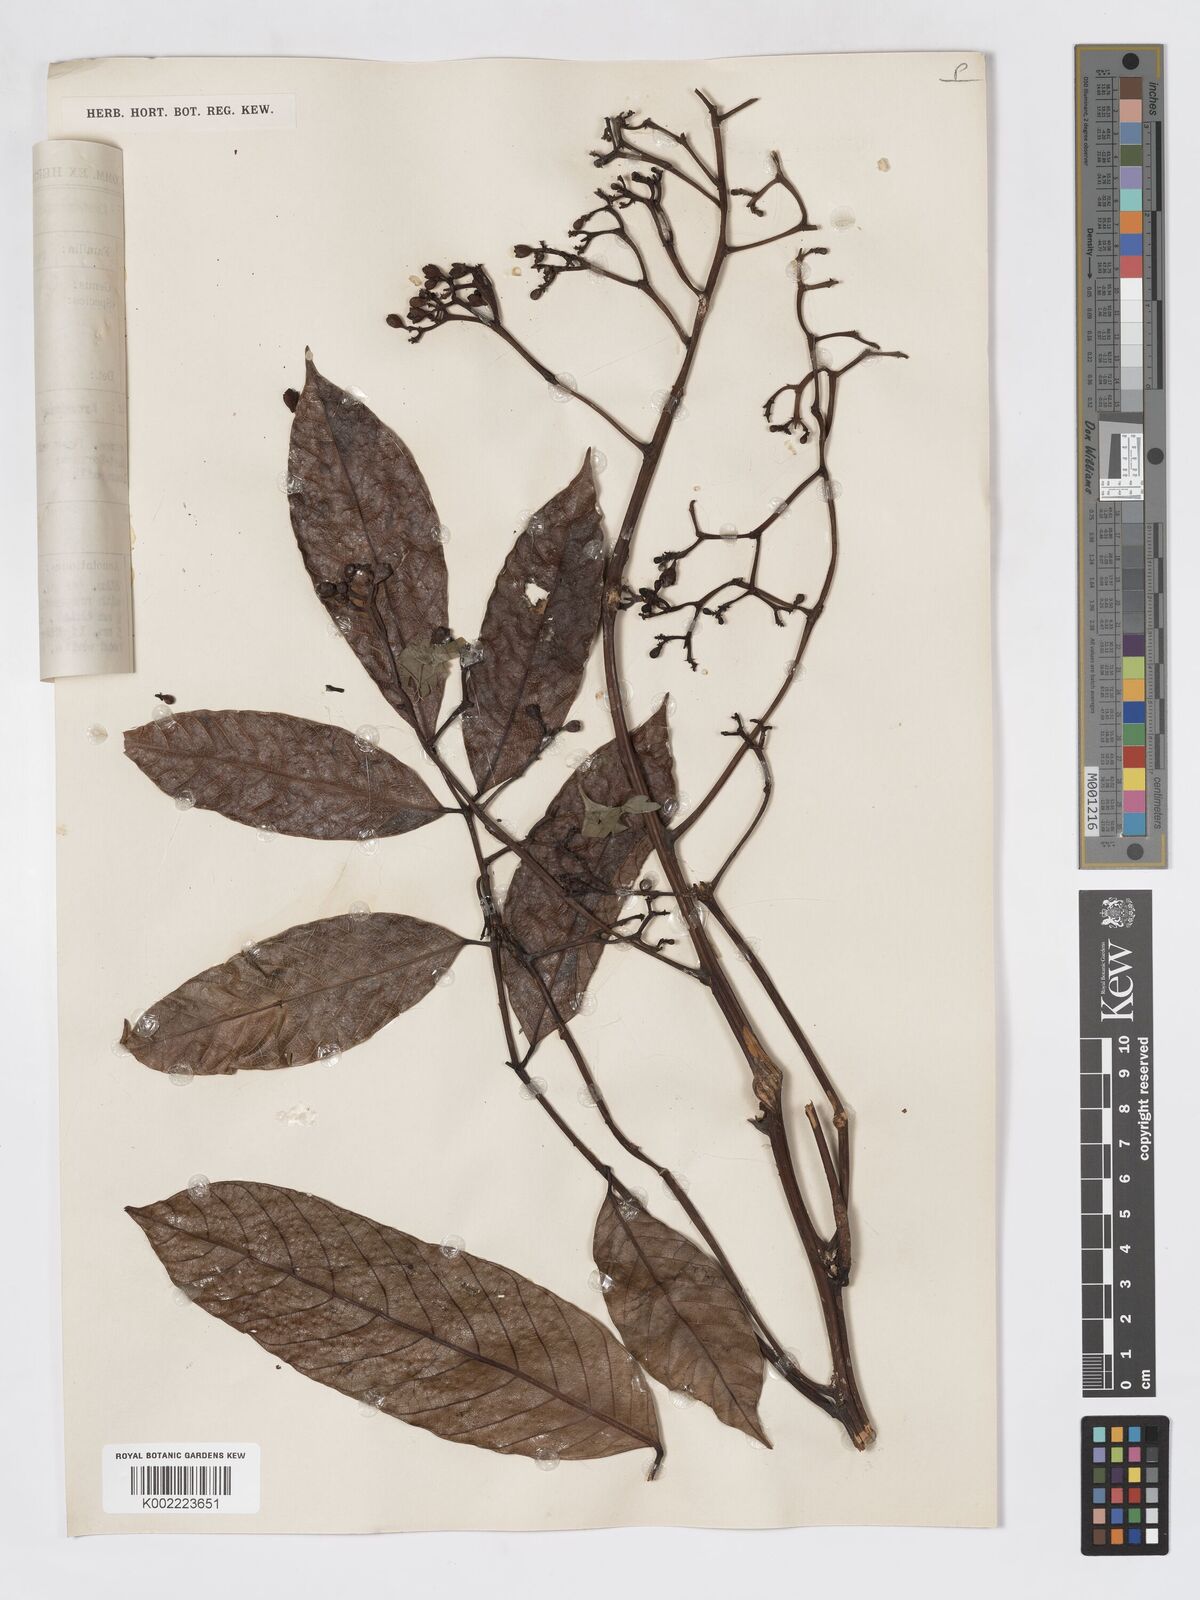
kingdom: Plantae
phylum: Tracheophyta
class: Magnoliopsida
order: Sapindales
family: Burseraceae
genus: Canarium
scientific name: Canarium dichotomum
